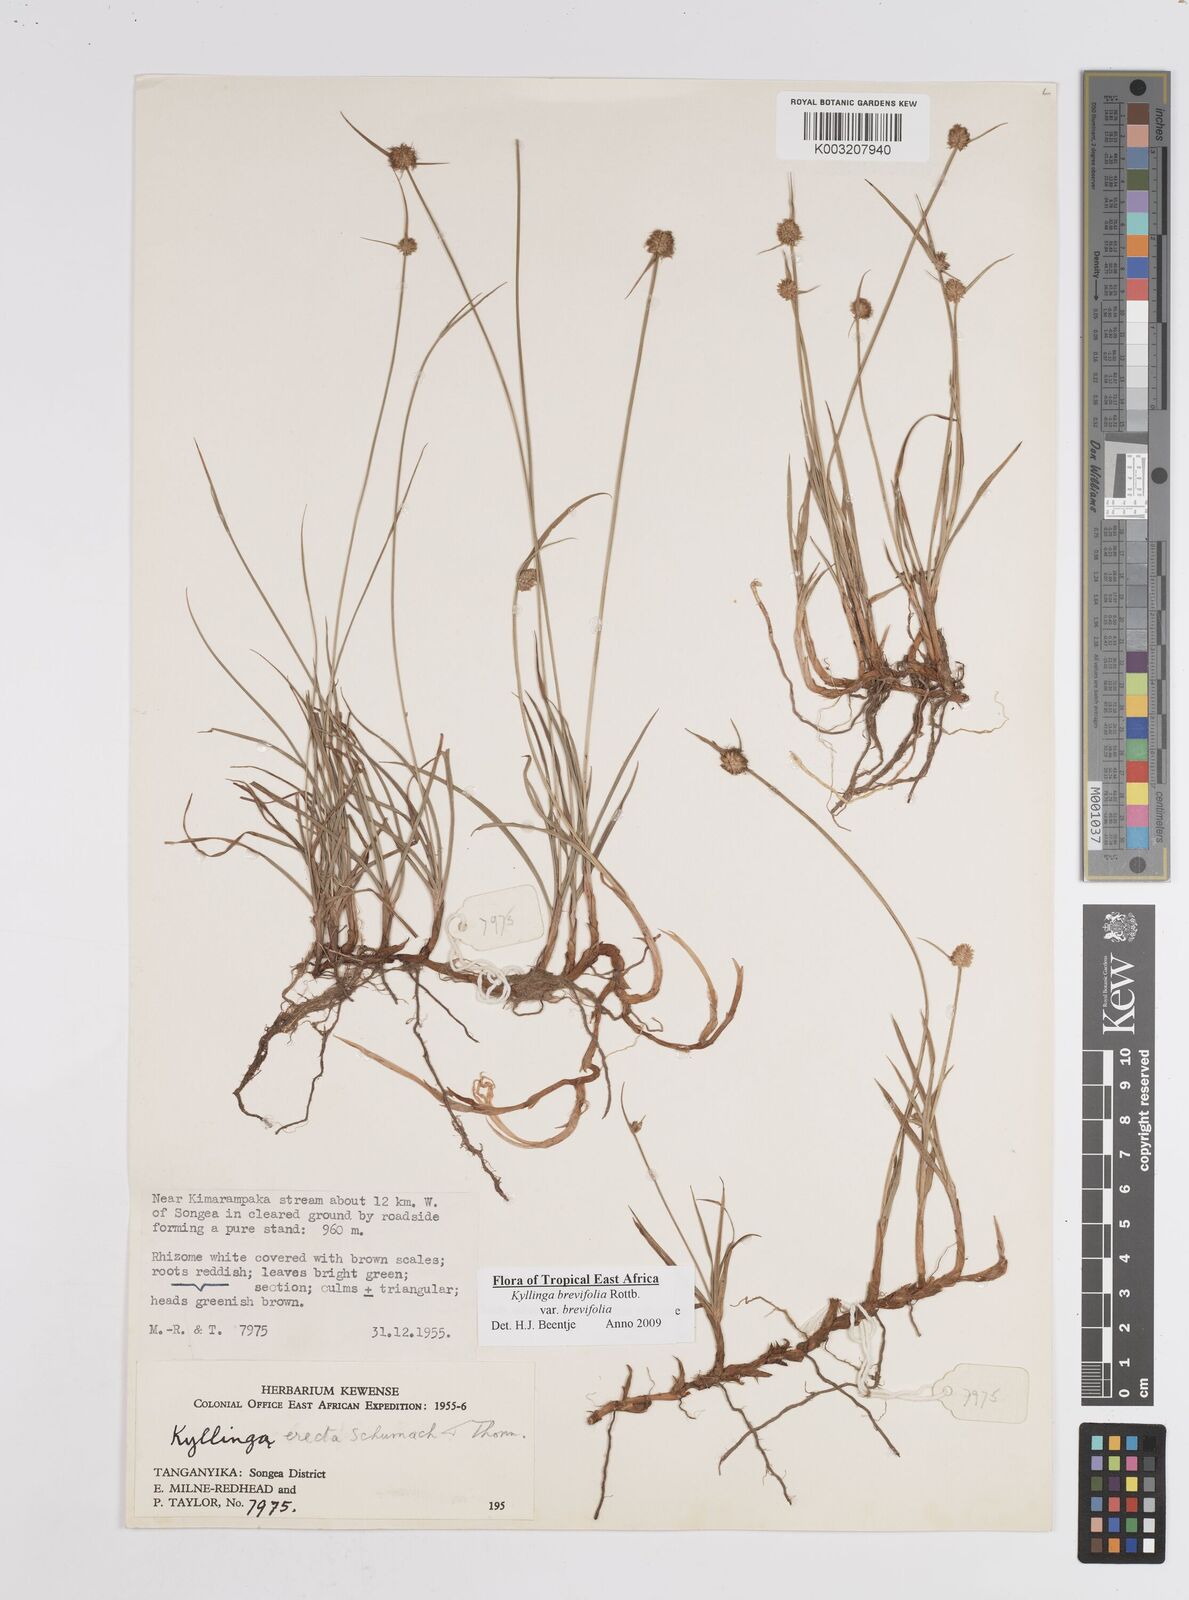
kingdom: Plantae
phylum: Tracheophyta
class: Liliopsida
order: Poales
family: Cyperaceae
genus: Cyperus
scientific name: Cyperus brevifolius
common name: Globe kyllinga
